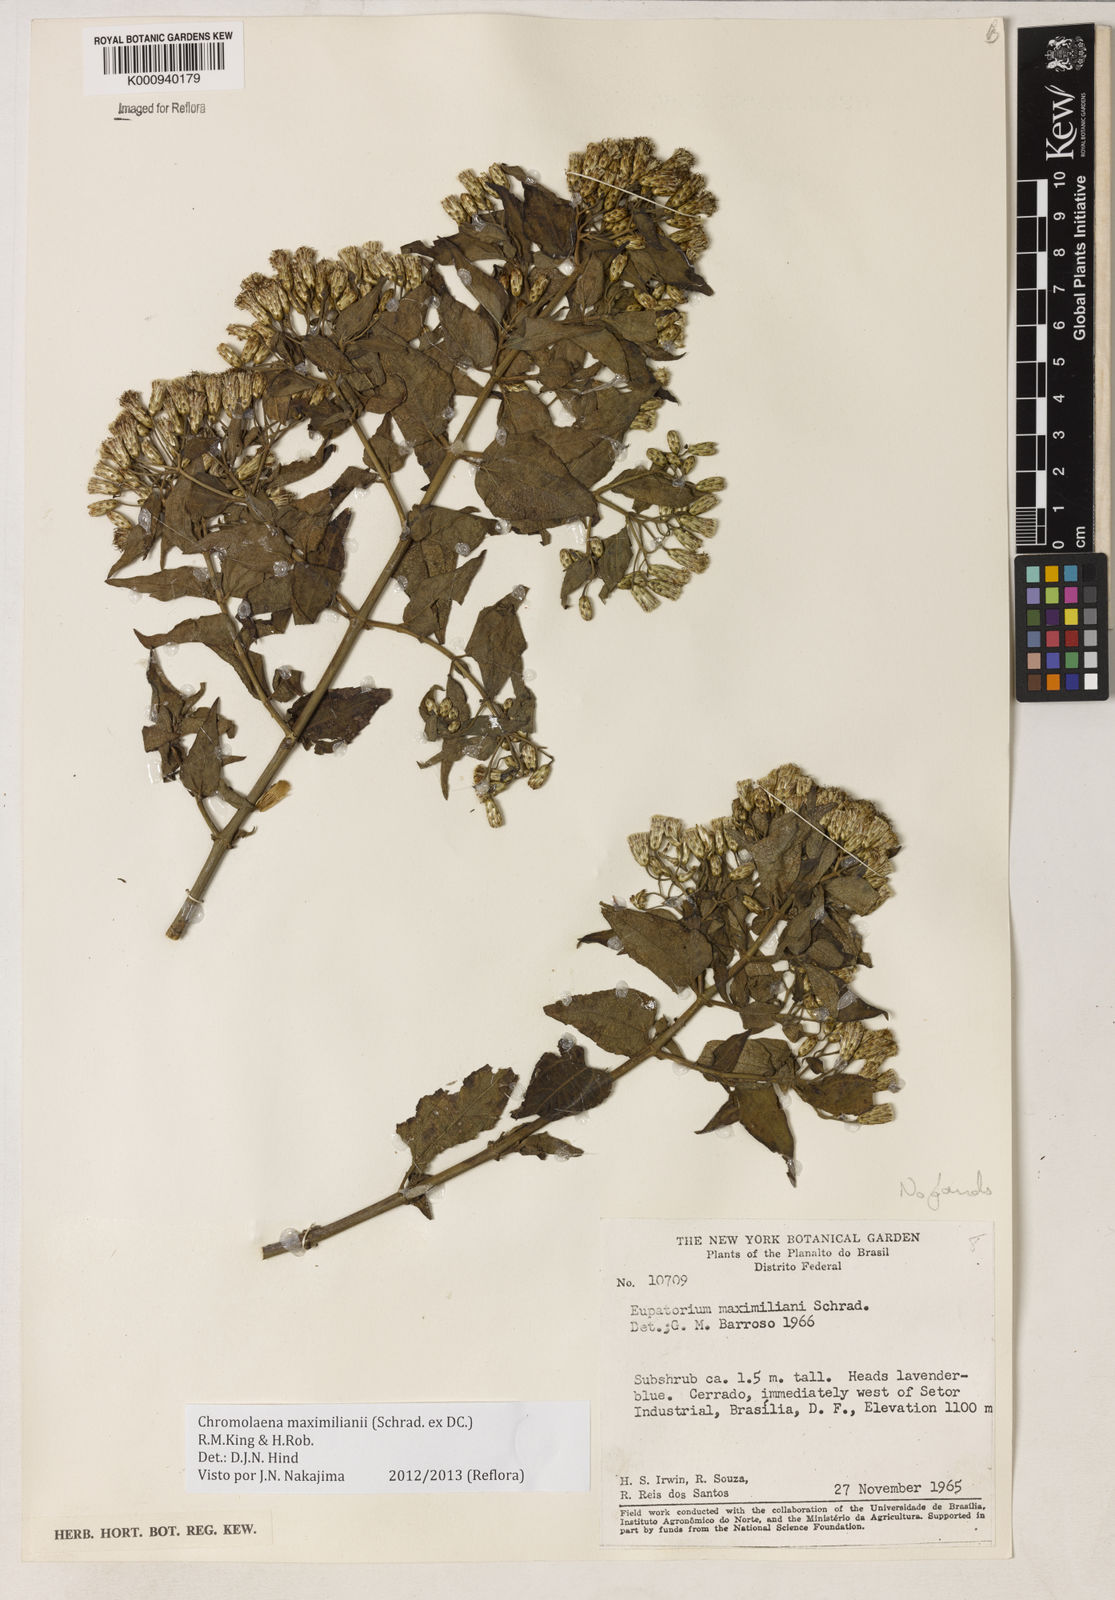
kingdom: Plantae
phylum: Tracheophyta
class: Magnoliopsida
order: Asterales
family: Asteraceae
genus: Chromolaena
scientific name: Chromolaena maximiliani
